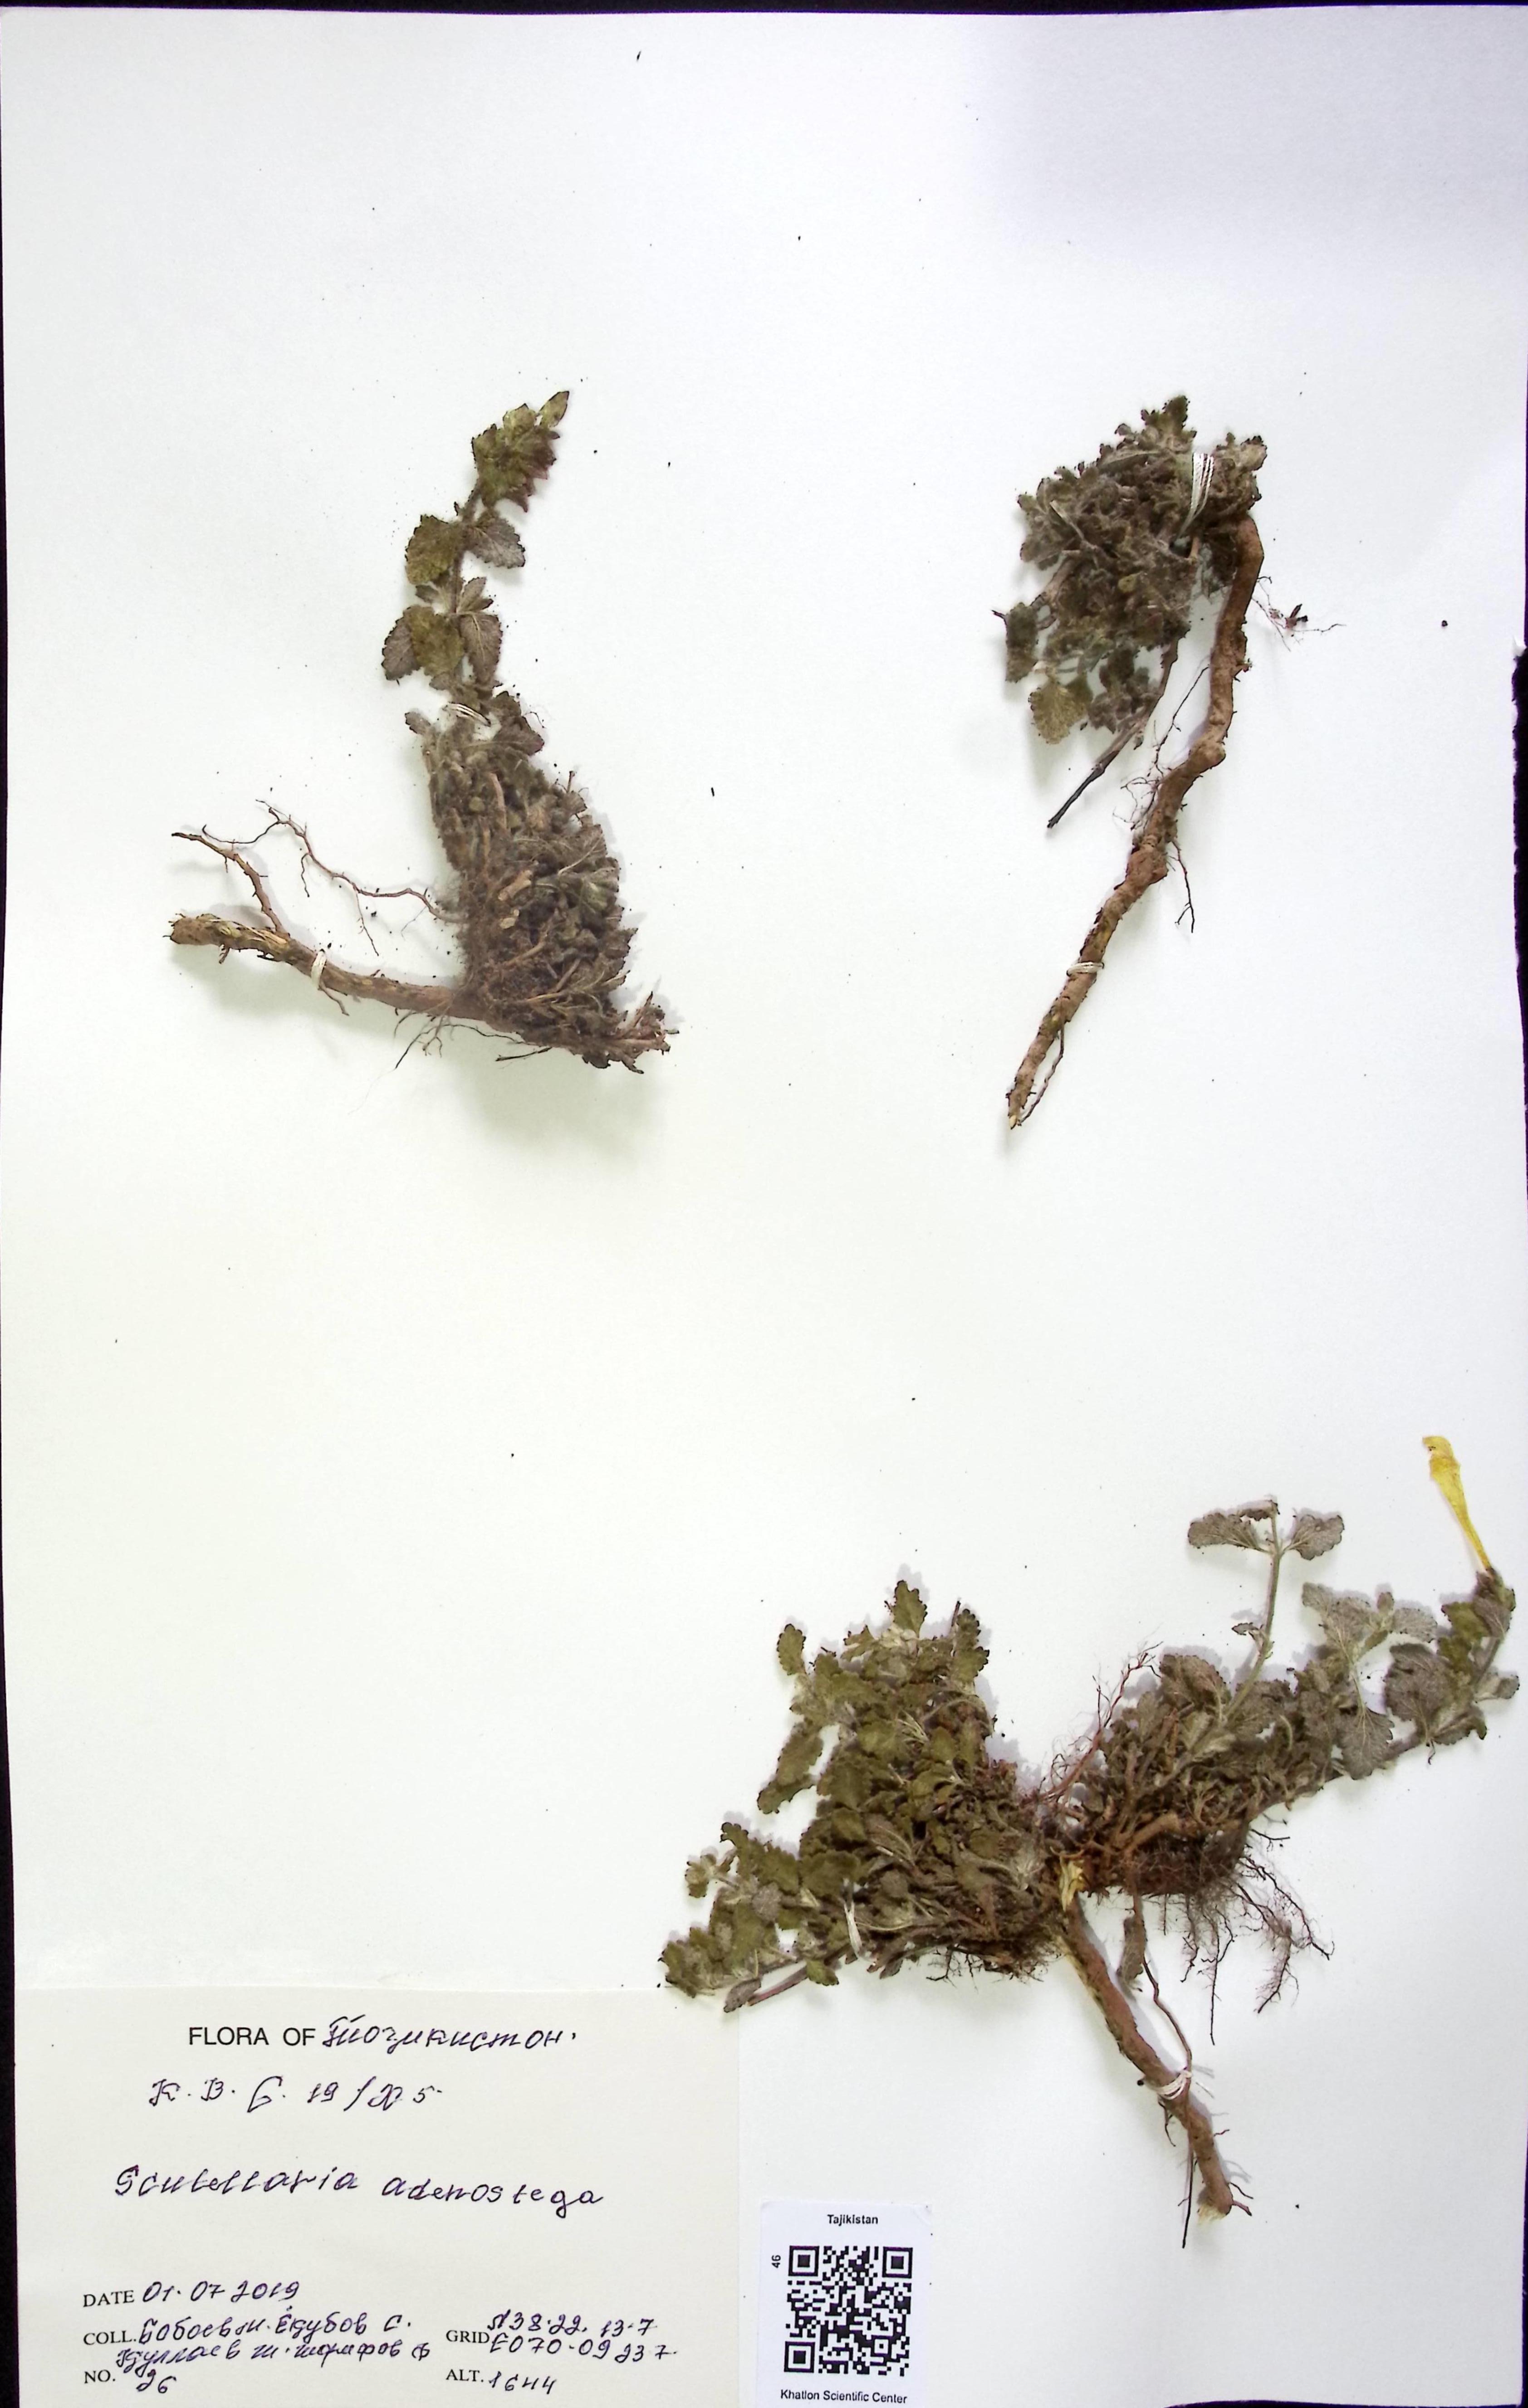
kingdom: Plantae
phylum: Tracheophyta
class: Magnoliopsida
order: Lamiales
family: Lamiaceae
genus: Scutellaria
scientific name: Scutellaria
